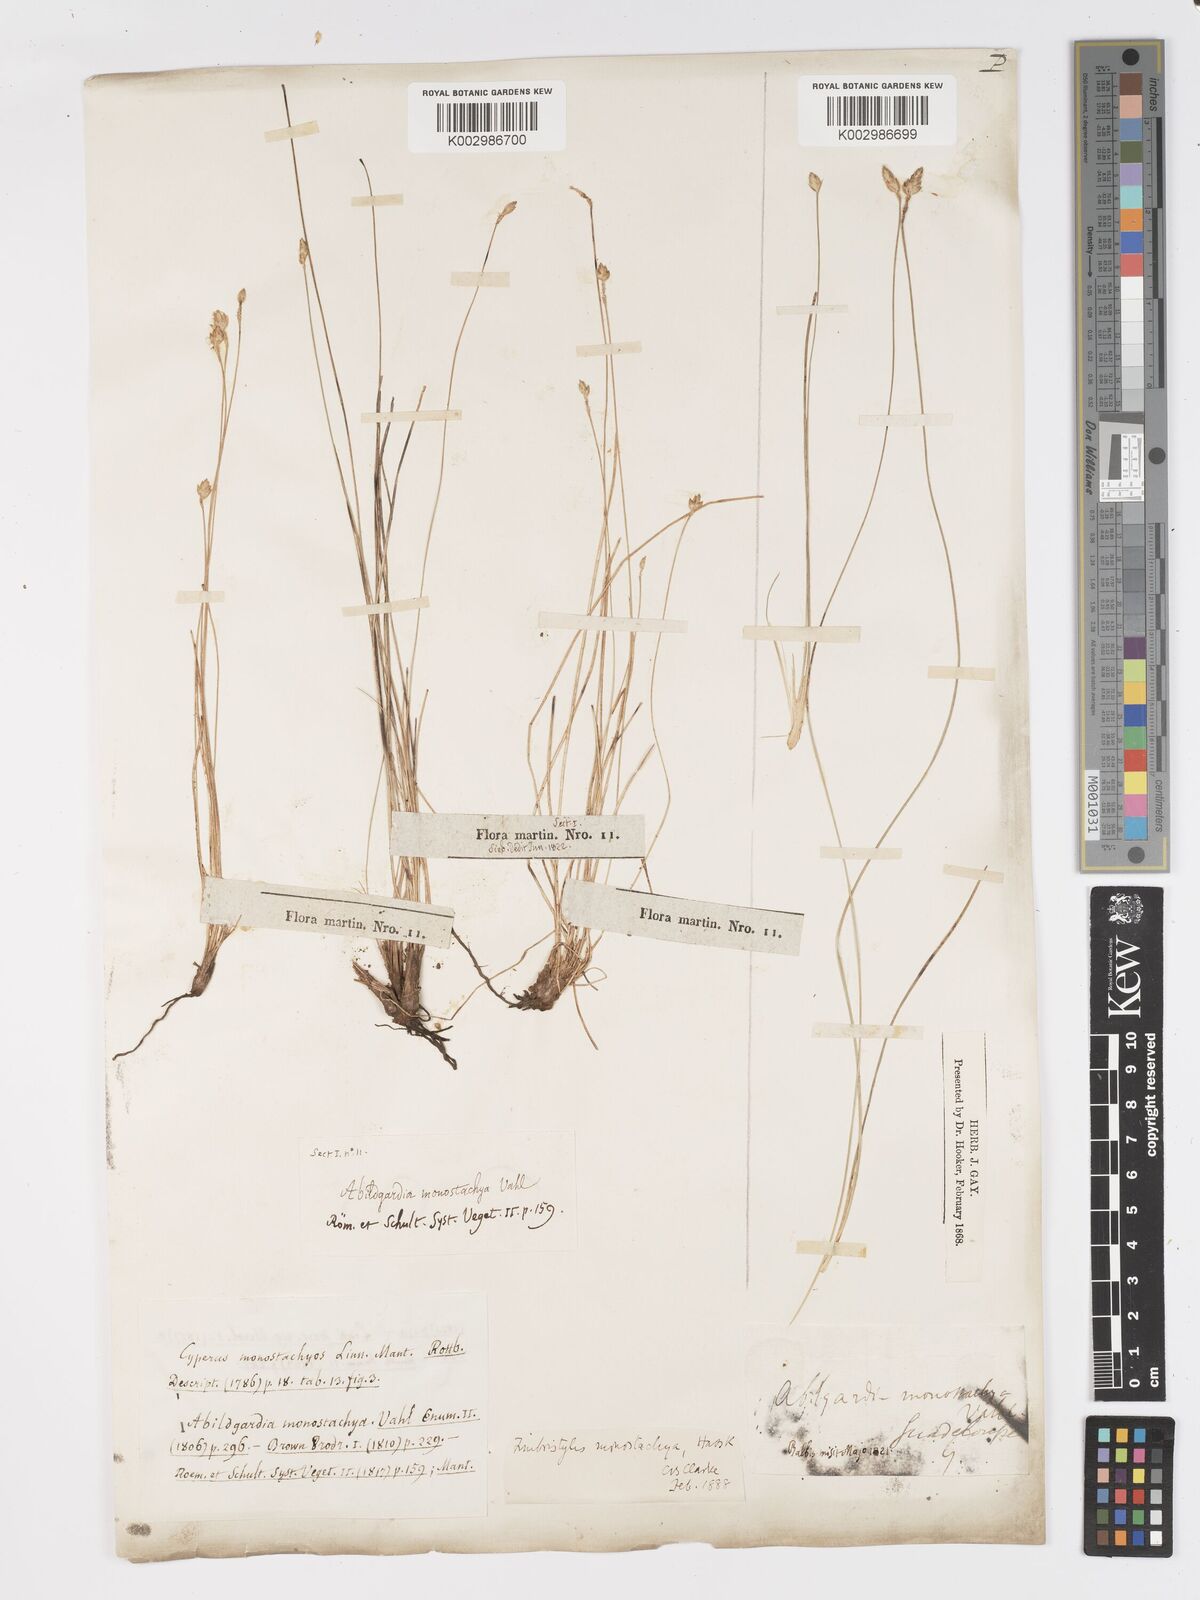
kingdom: Plantae
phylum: Tracheophyta
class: Liliopsida
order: Poales
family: Cyperaceae
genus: Abildgaardia
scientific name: Abildgaardia ovata
